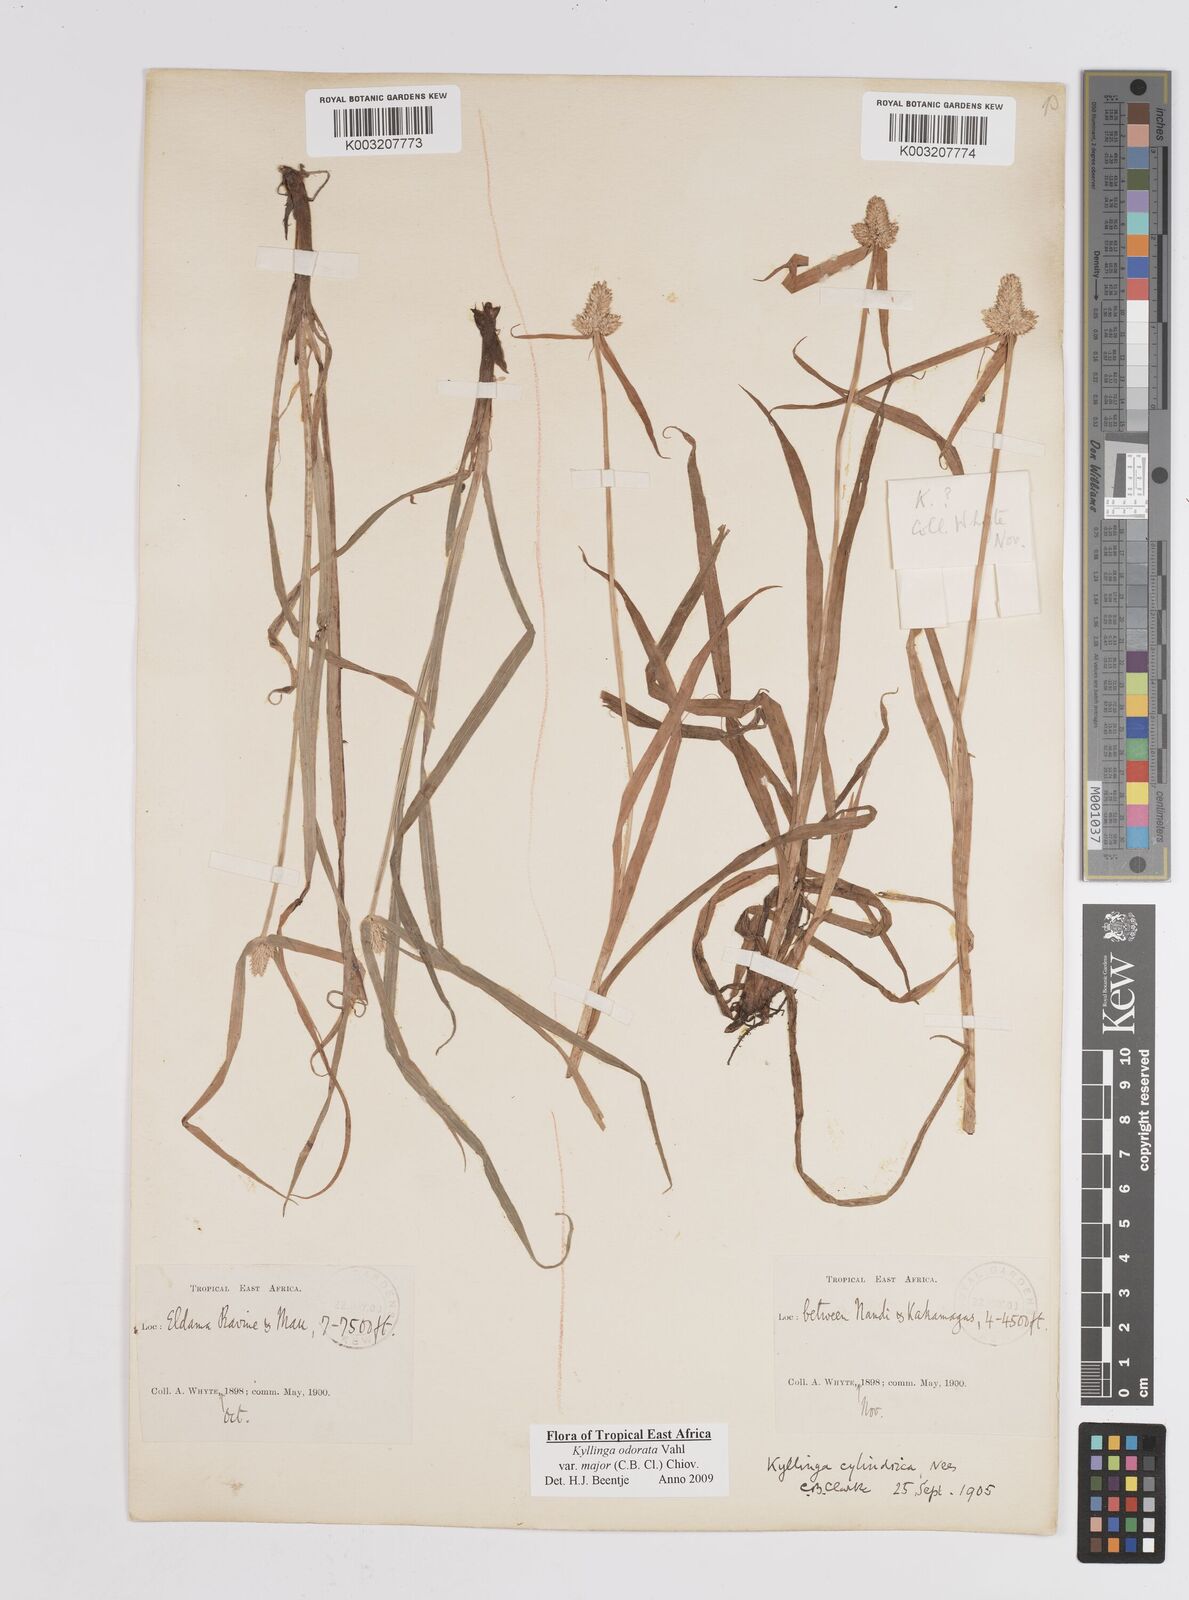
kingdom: Plantae
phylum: Tracheophyta
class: Liliopsida
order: Poales
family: Cyperaceae
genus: Cyperus
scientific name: Cyperus
